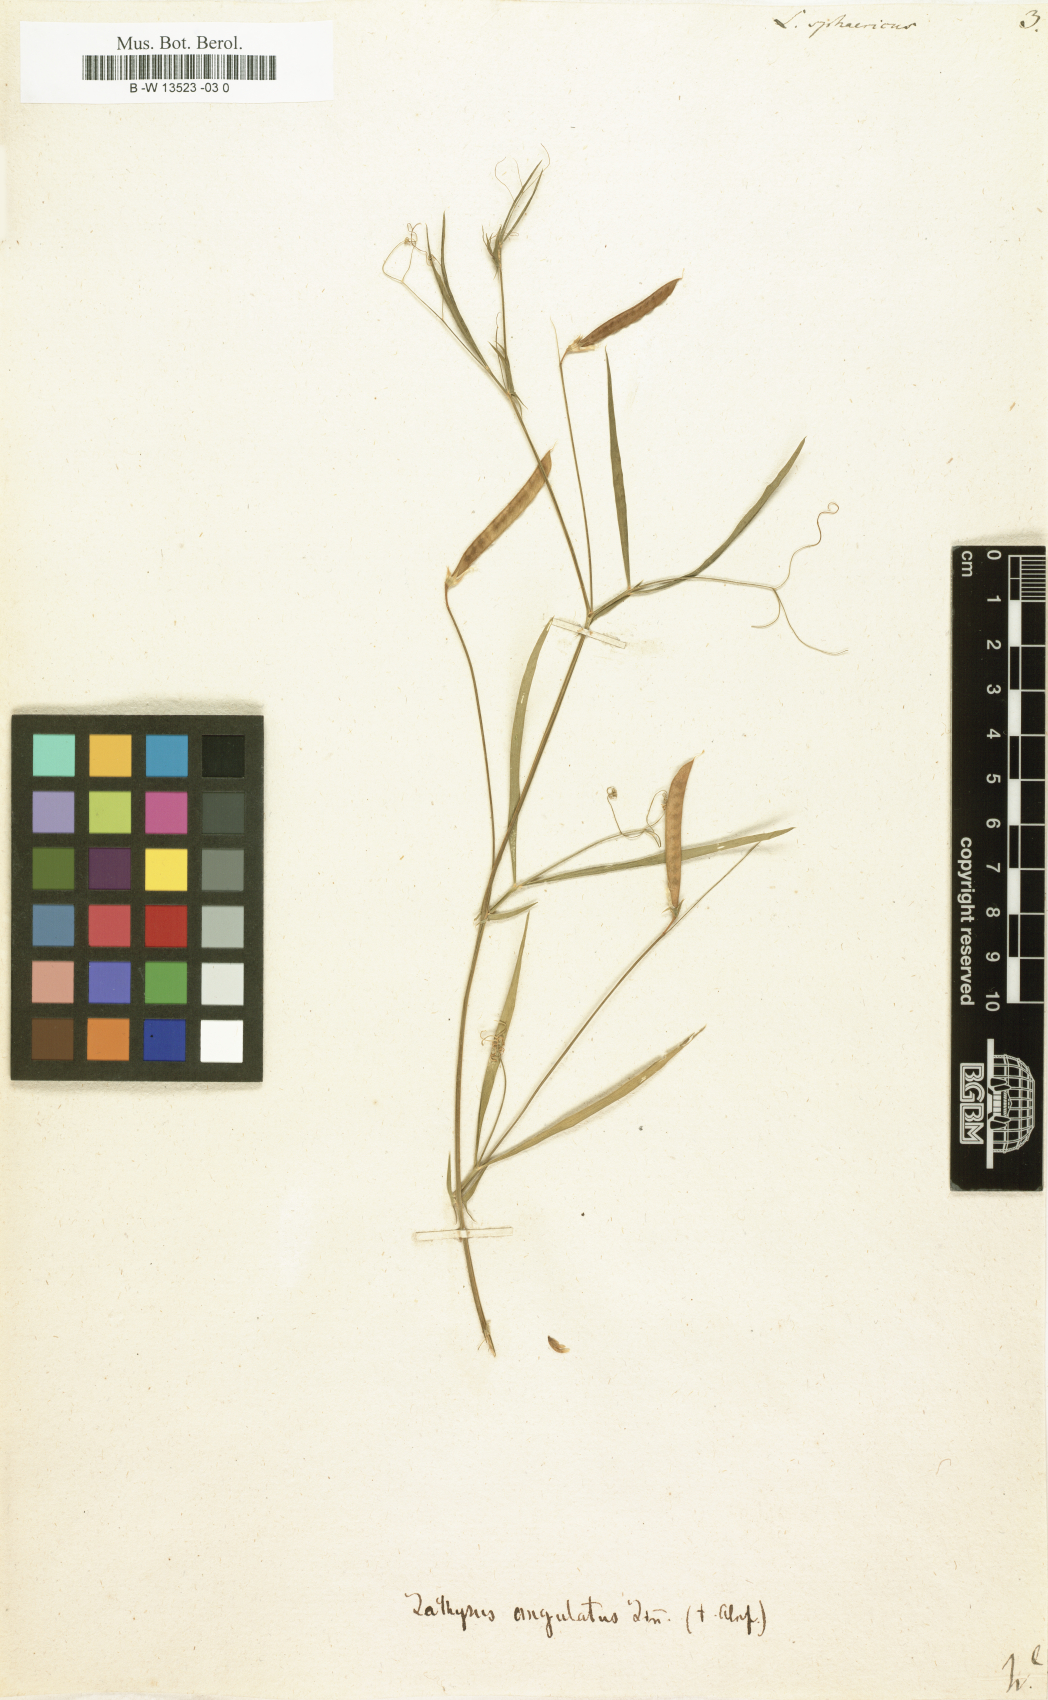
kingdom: Plantae
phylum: Tracheophyta
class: Magnoliopsida
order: Fabales
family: Fabaceae
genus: Lathyrus
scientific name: Lathyrus sphaericus
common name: Grass pea
